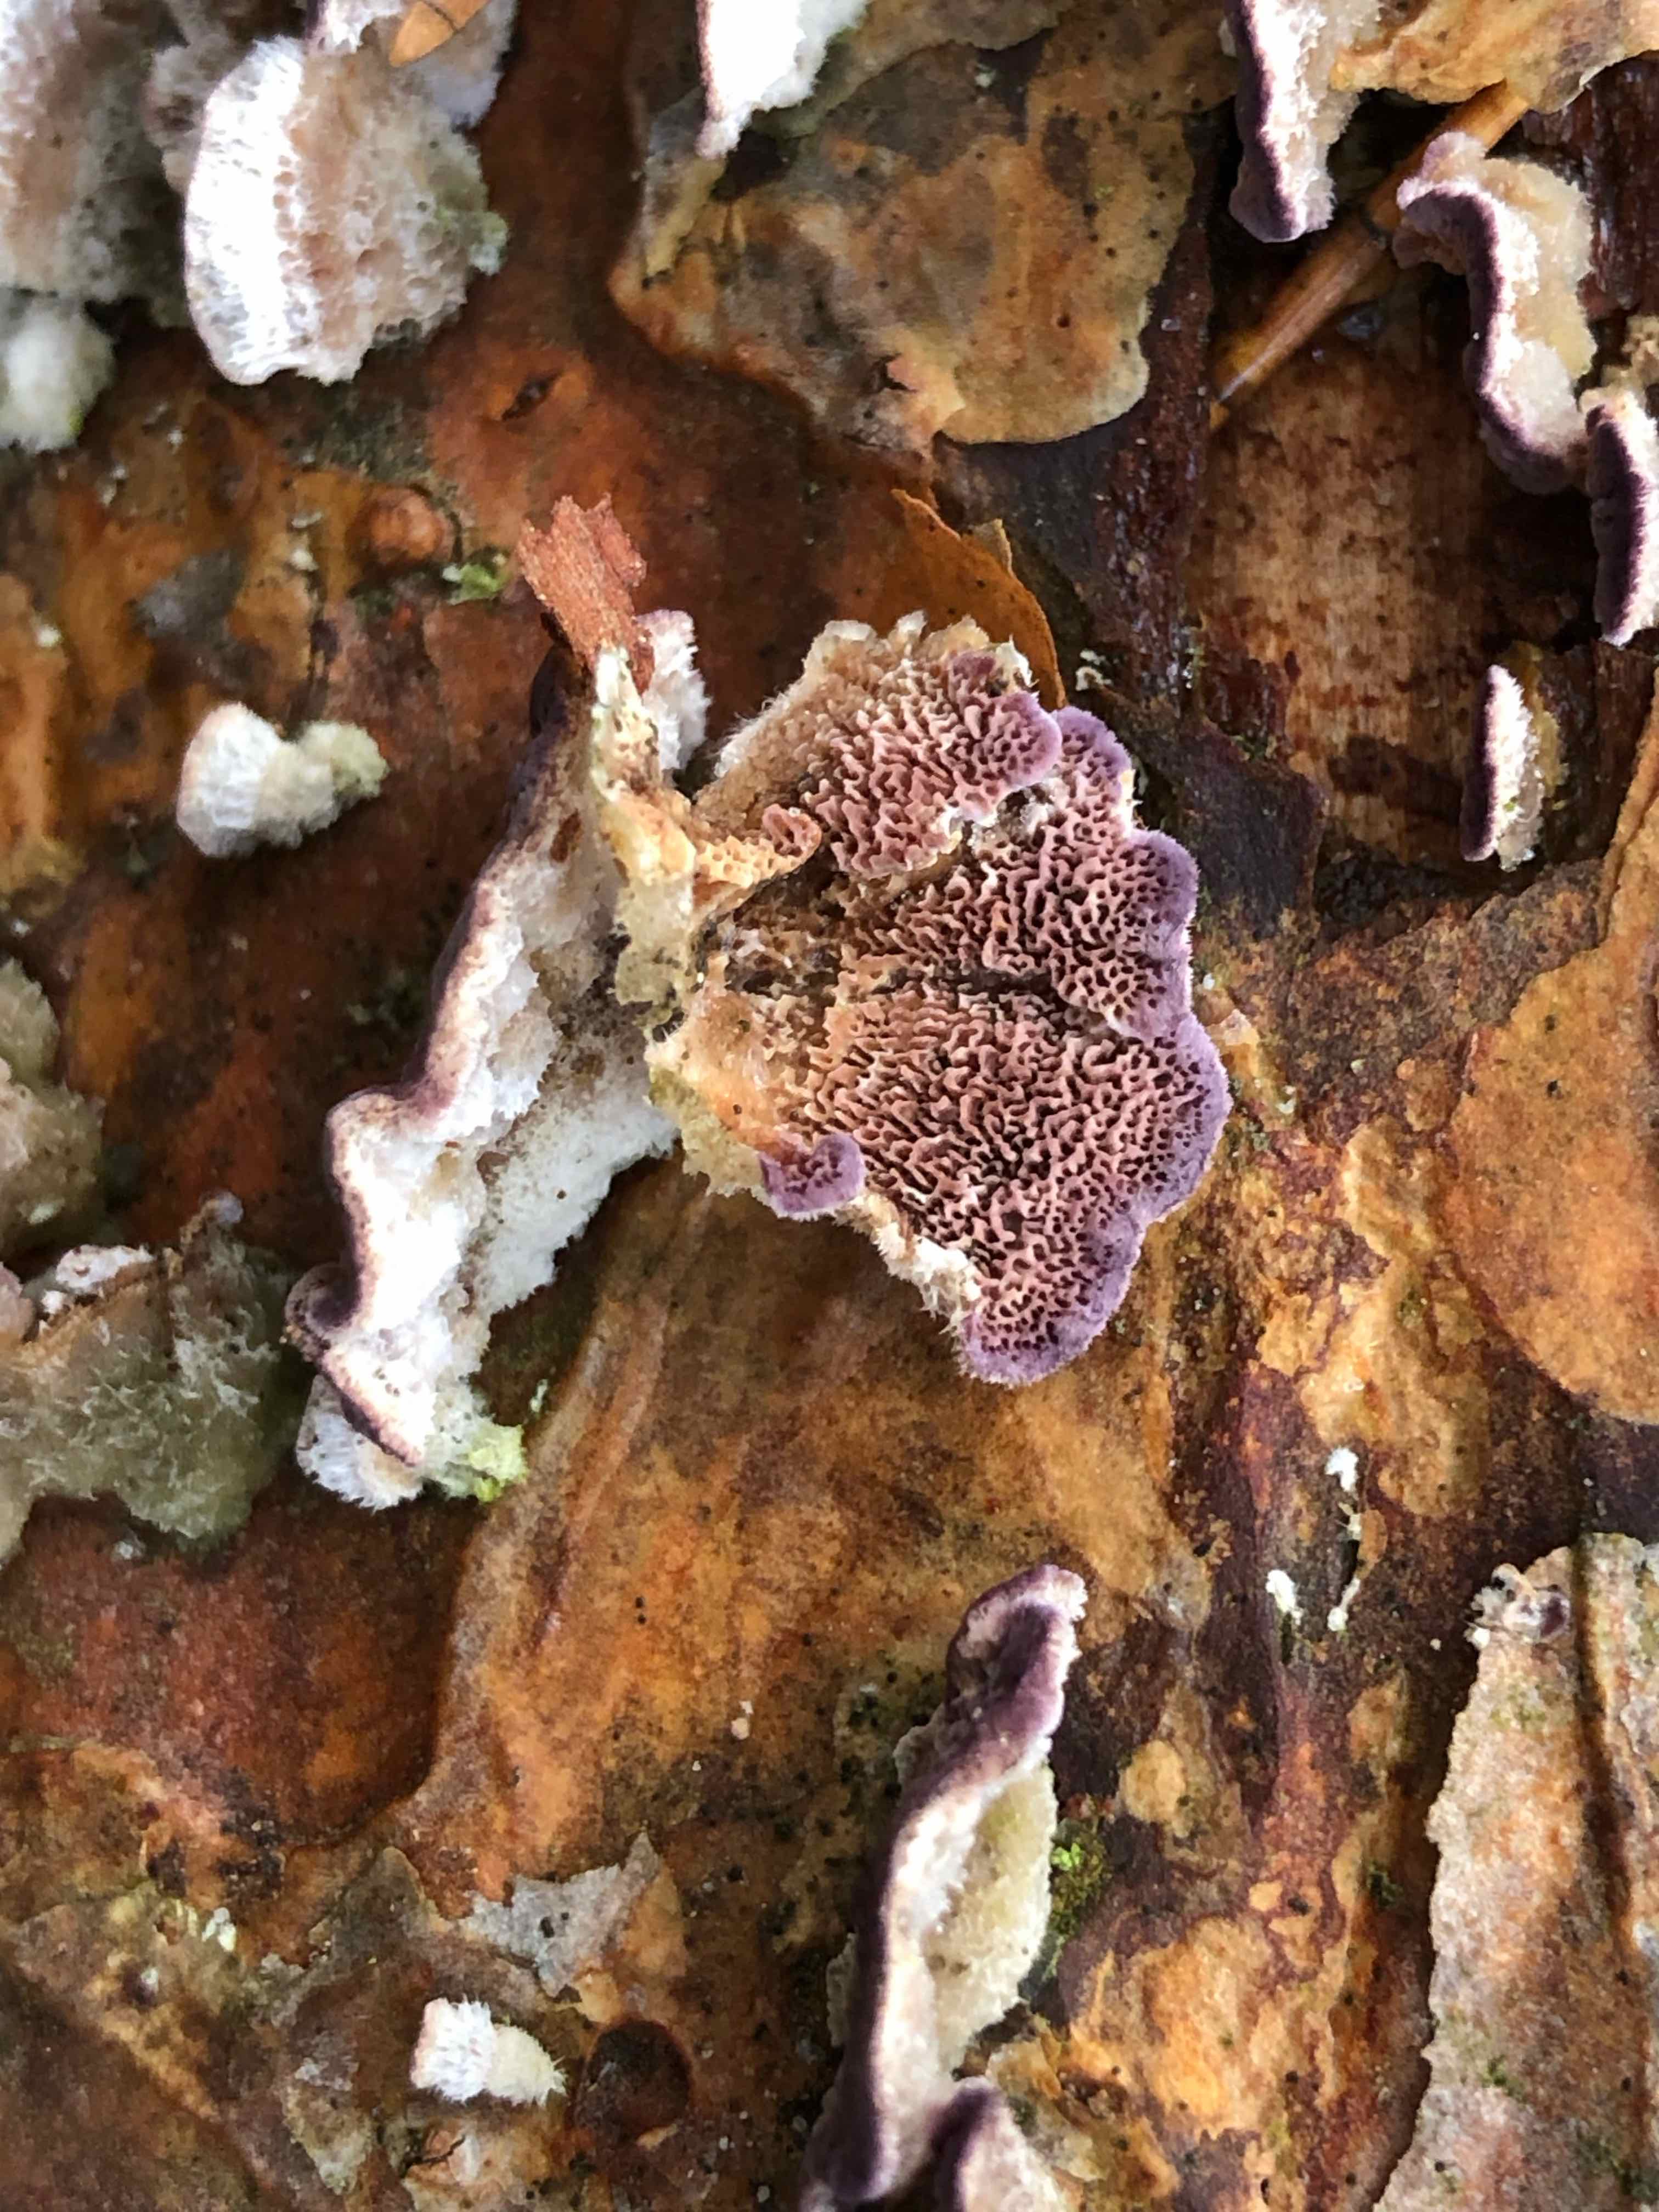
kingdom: Fungi
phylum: Basidiomycota
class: Agaricomycetes
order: Hymenochaetales
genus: Trichaptum
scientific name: Trichaptum abietinum
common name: almindelig violporesvamp
